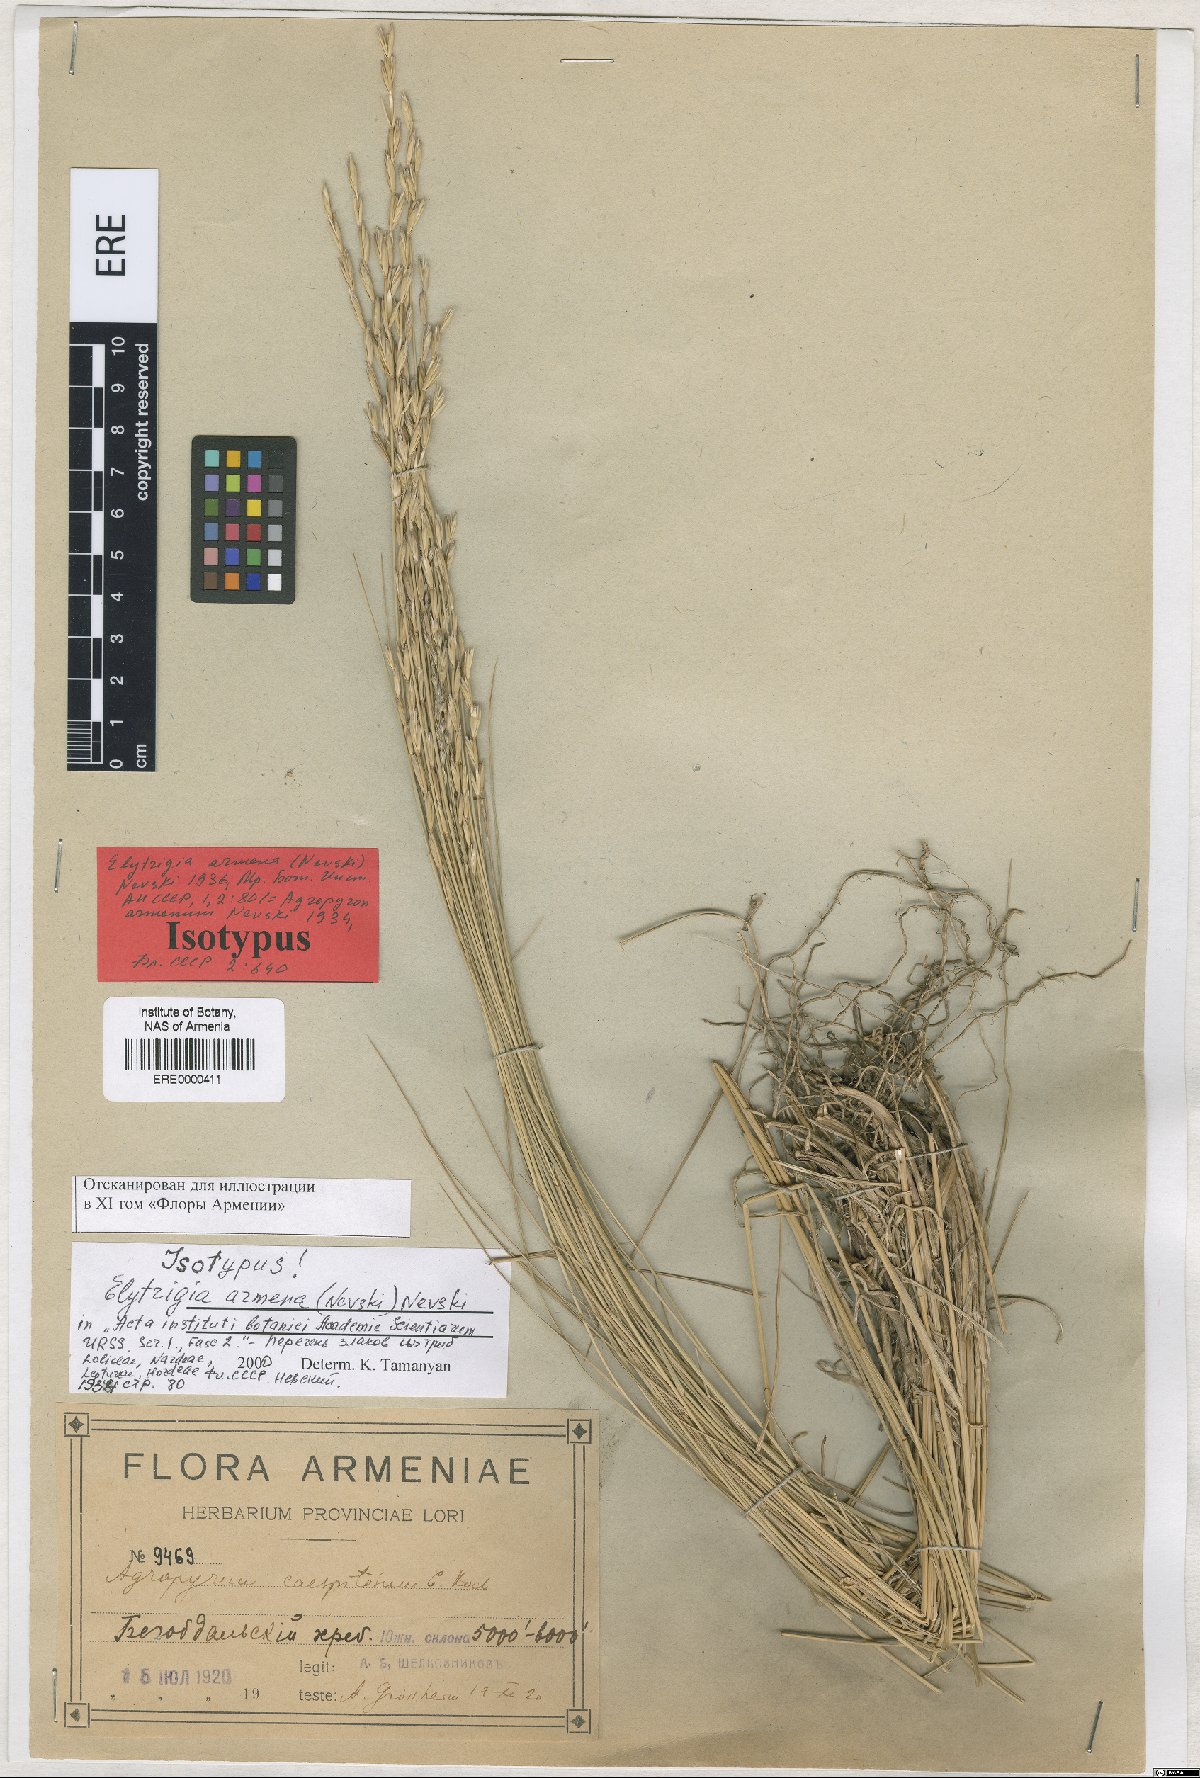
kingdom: Plantae
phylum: Tracheophyta
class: Liliopsida
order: Poales
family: Poaceae
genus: Pseudoroegneria
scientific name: Pseudoroegneria stipifolia
